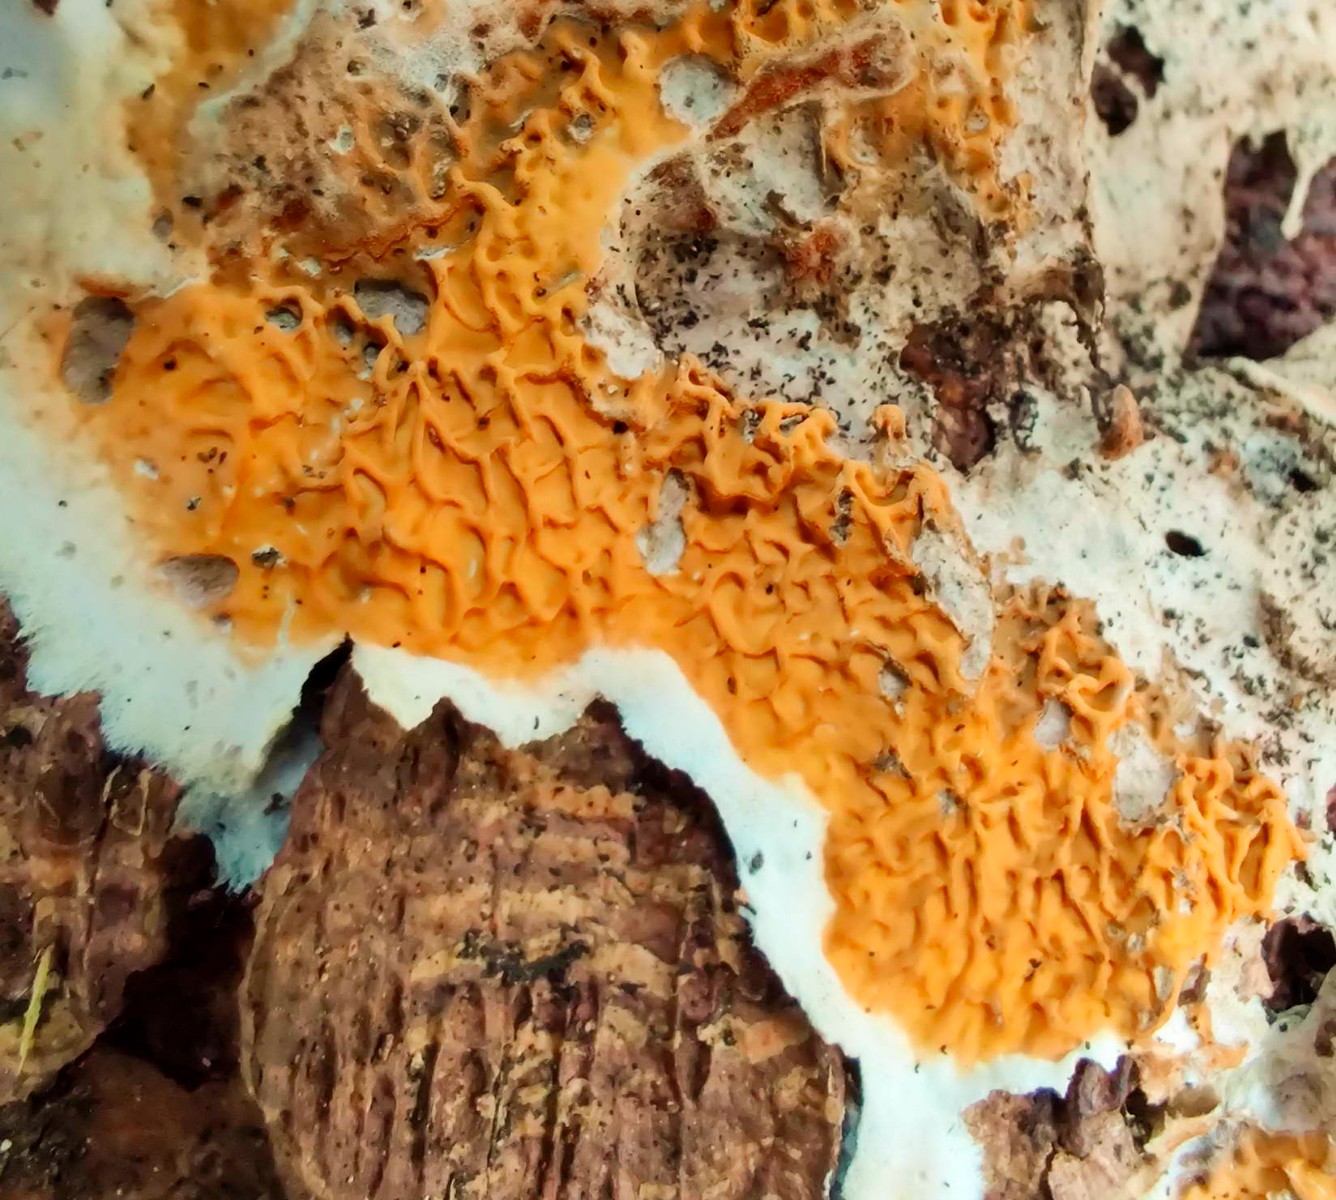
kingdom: Fungi
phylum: Basidiomycota
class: Agaricomycetes
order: Boletales
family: Serpulaceae
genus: Serpula
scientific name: Serpula himantioides
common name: tyndkødet hussvamp
